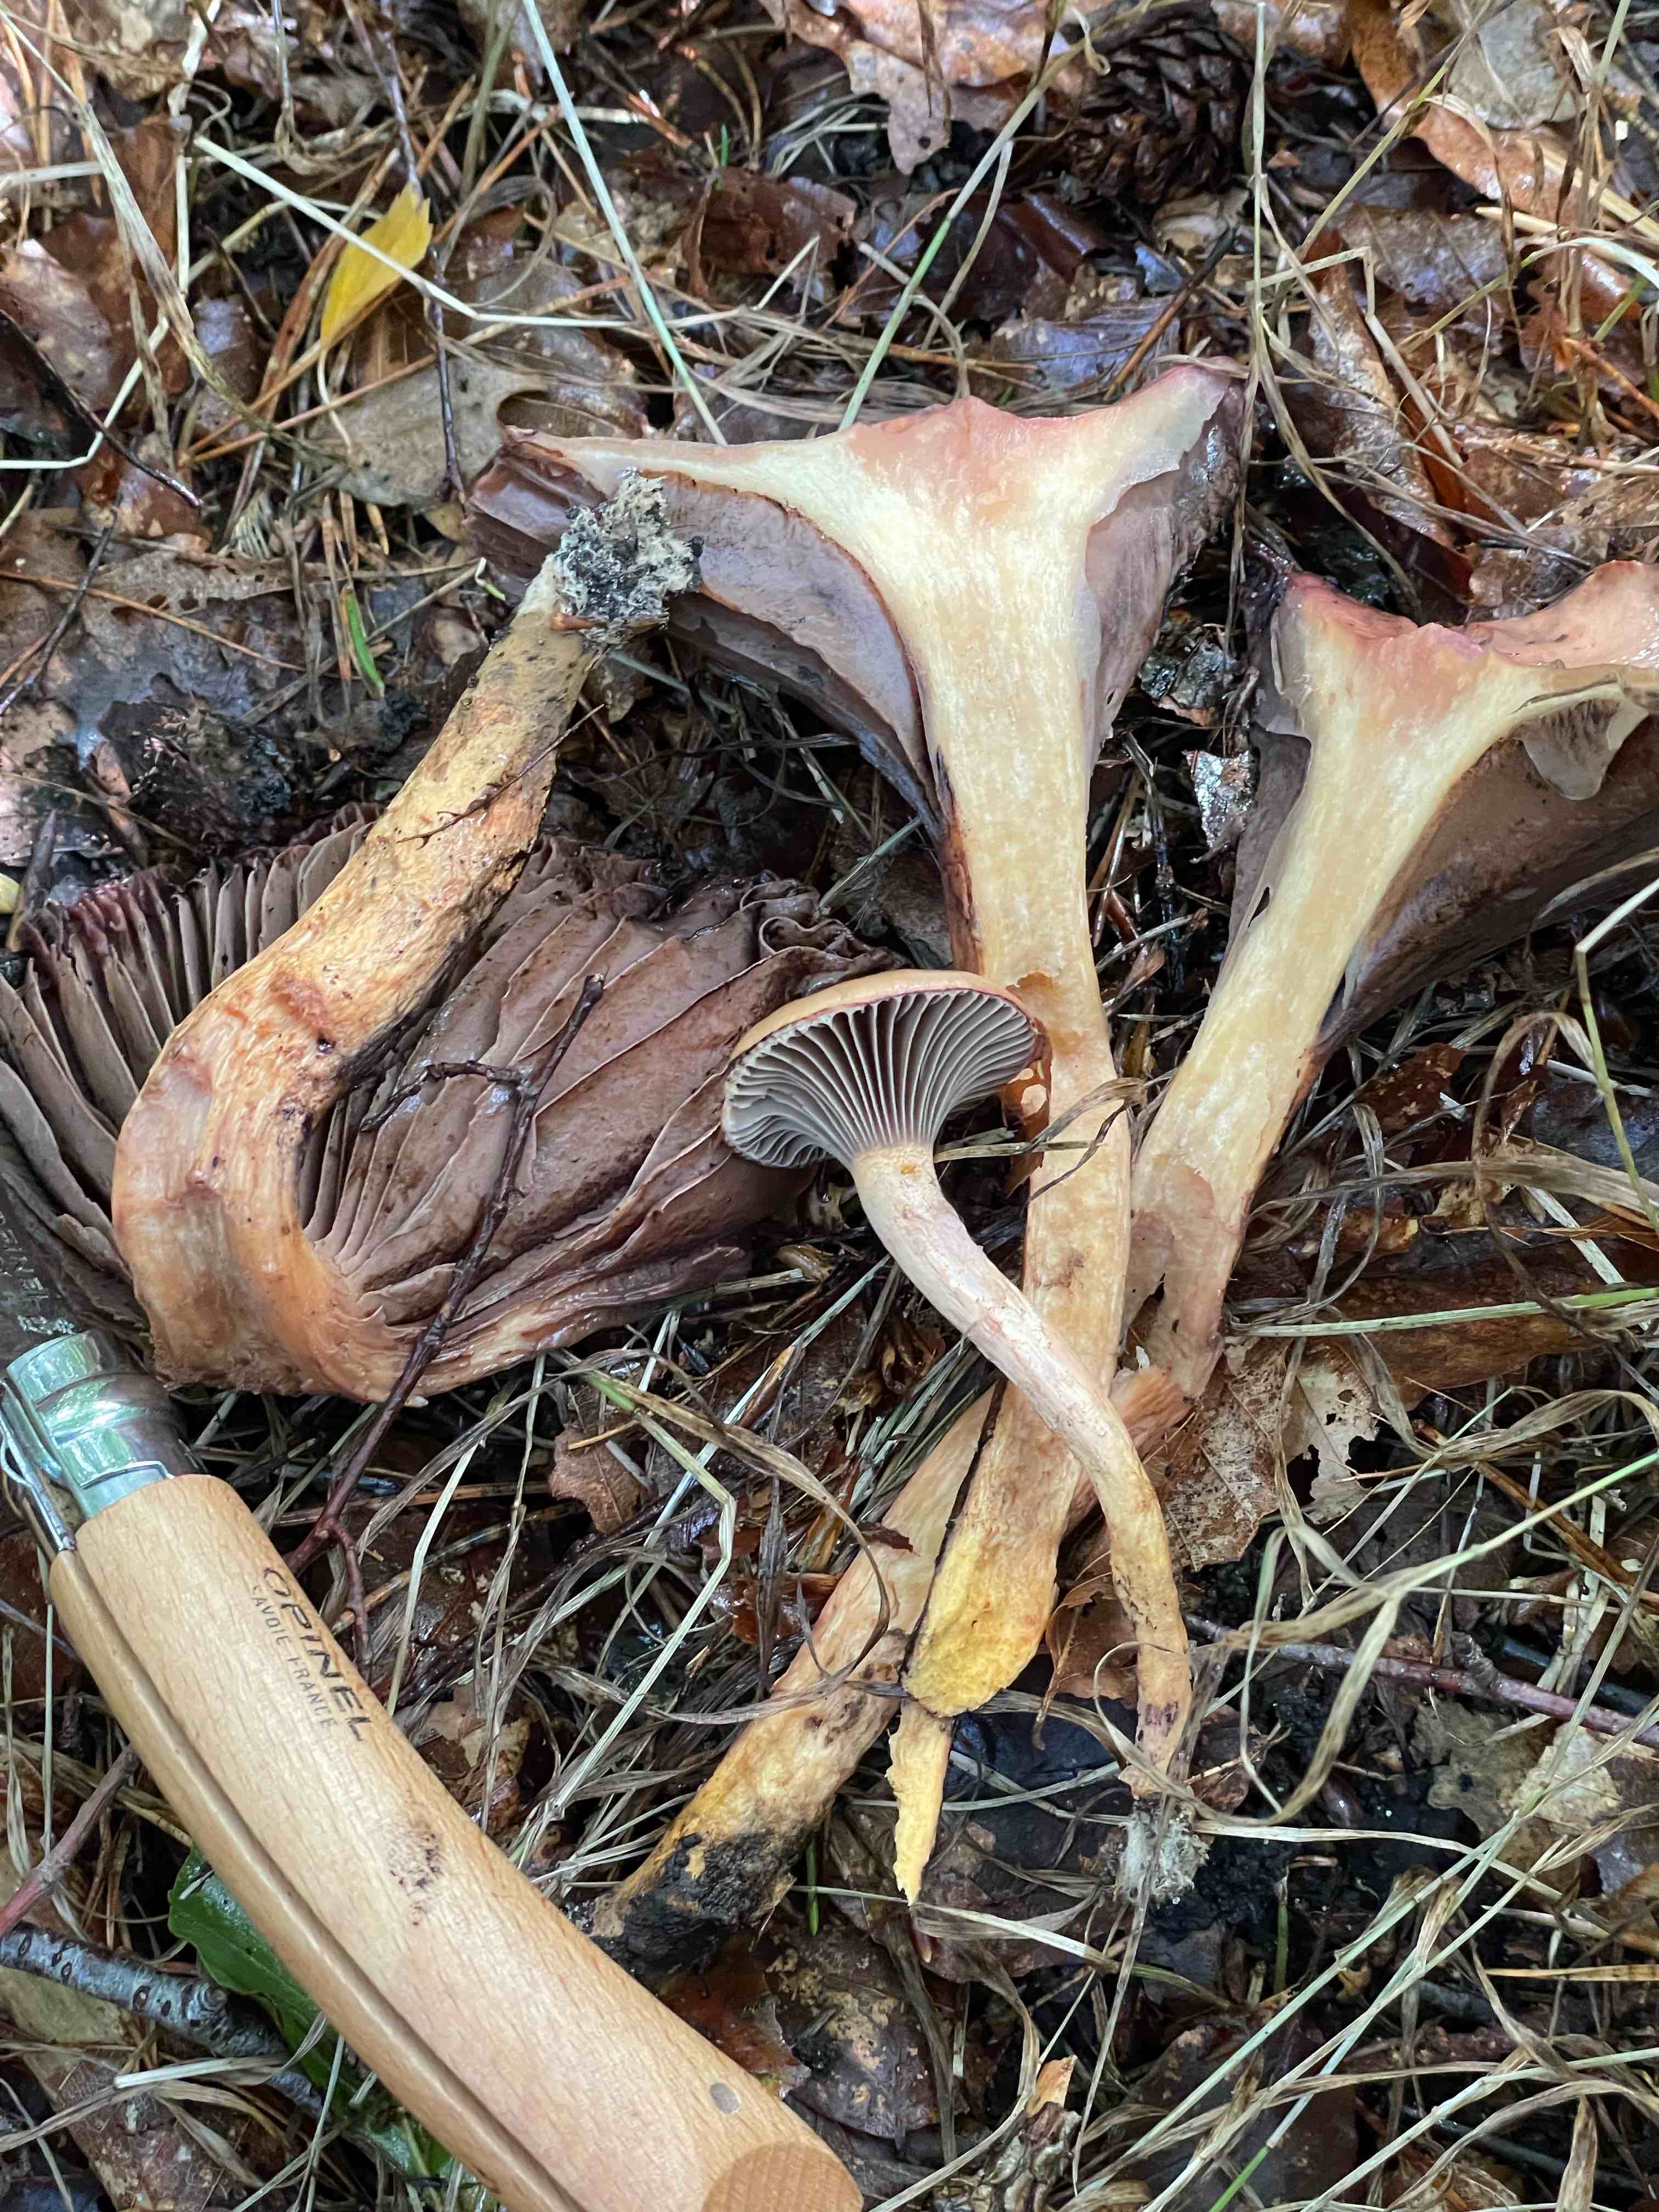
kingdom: Fungi
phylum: Basidiomycota
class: Agaricomycetes
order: Boletales
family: Gomphidiaceae
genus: Chroogomphus
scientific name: Chroogomphus rutilus
